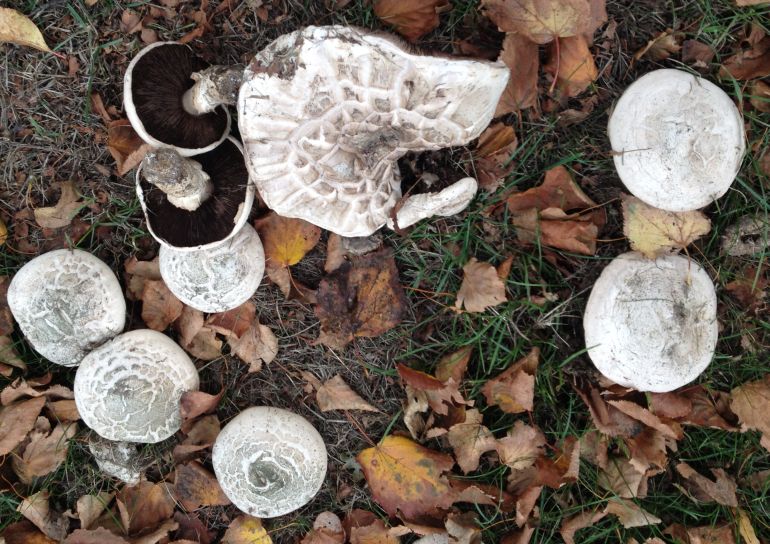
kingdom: Fungi
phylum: Basidiomycota
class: Agaricomycetes
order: Agaricales
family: Agaricaceae
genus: Agaricus
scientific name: Agaricus bernardii
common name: strandengs-champignon
